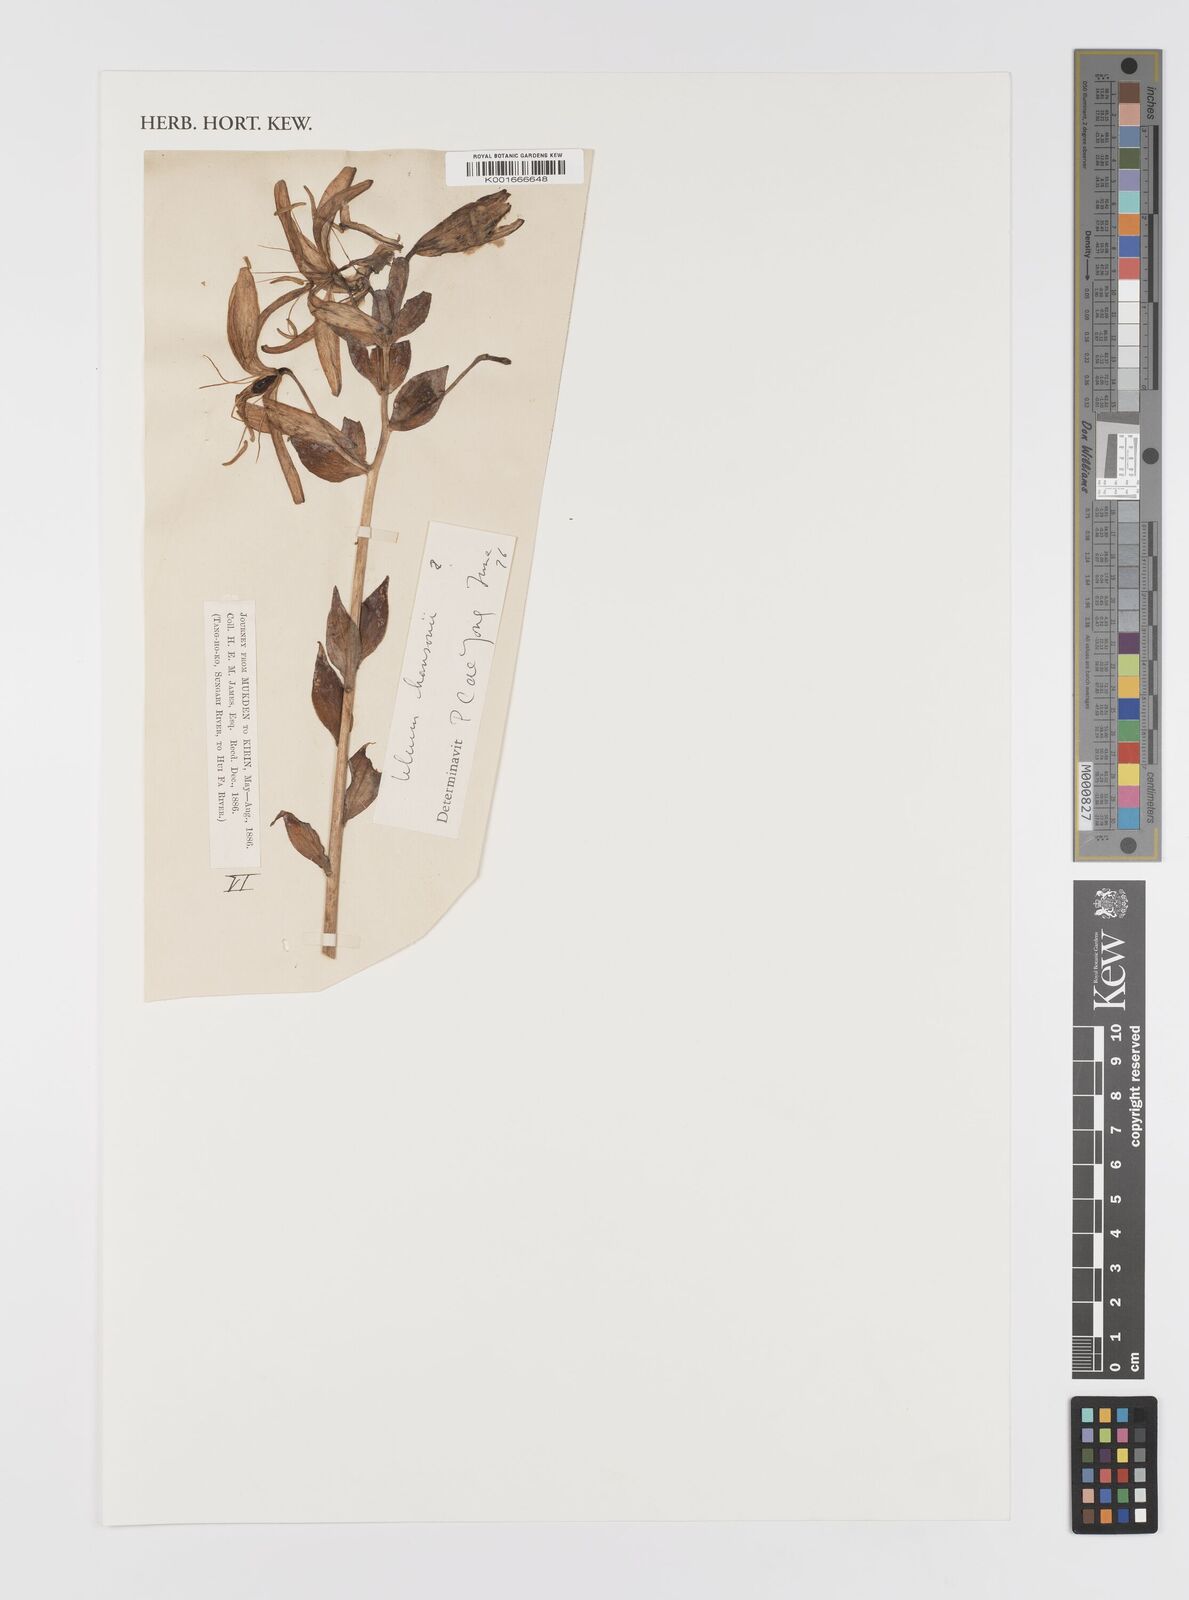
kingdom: Plantae
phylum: Tracheophyta
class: Liliopsida
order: Liliales
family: Liliaceae
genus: Lilium
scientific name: Lilium hansonii
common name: Hanson's lily
